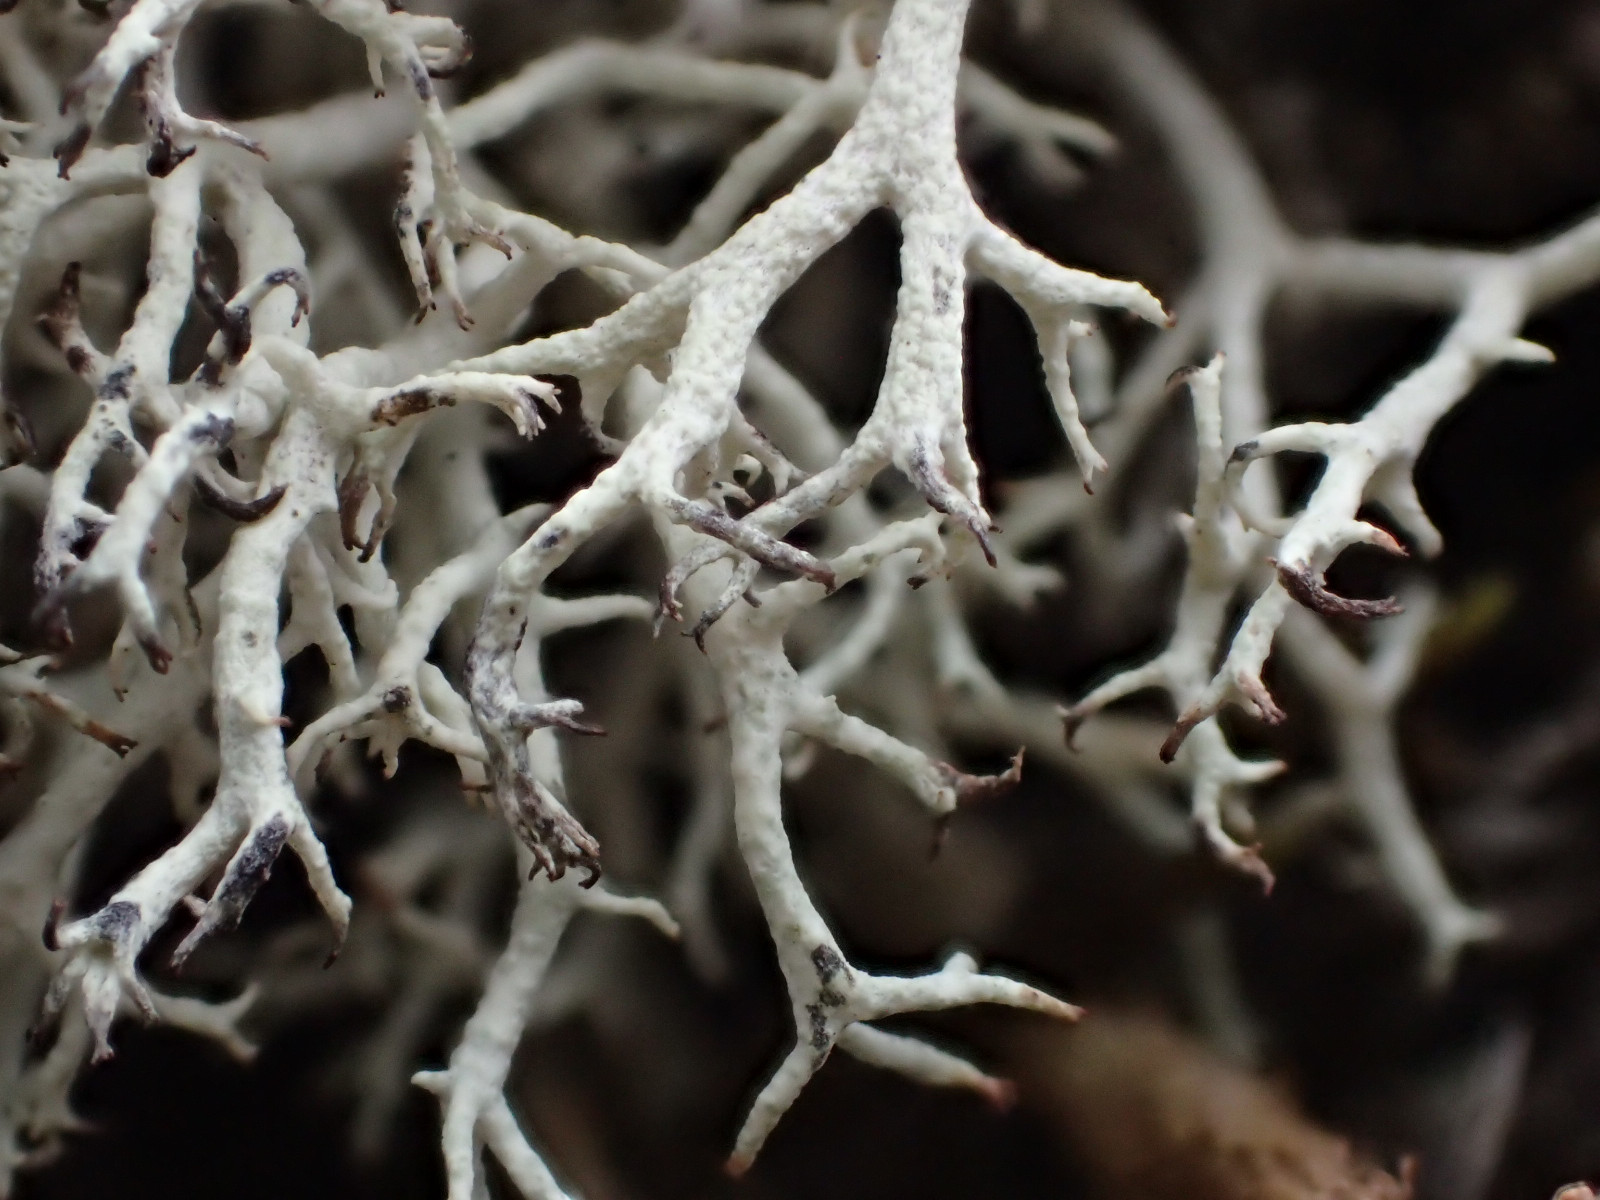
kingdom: Fungi
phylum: Ascomycota
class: Lecanoromycetes
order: Lecanorales
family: Cladoniaceae
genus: Cladonia
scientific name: Cladonia portentosa
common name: hede-rensdyrlav
